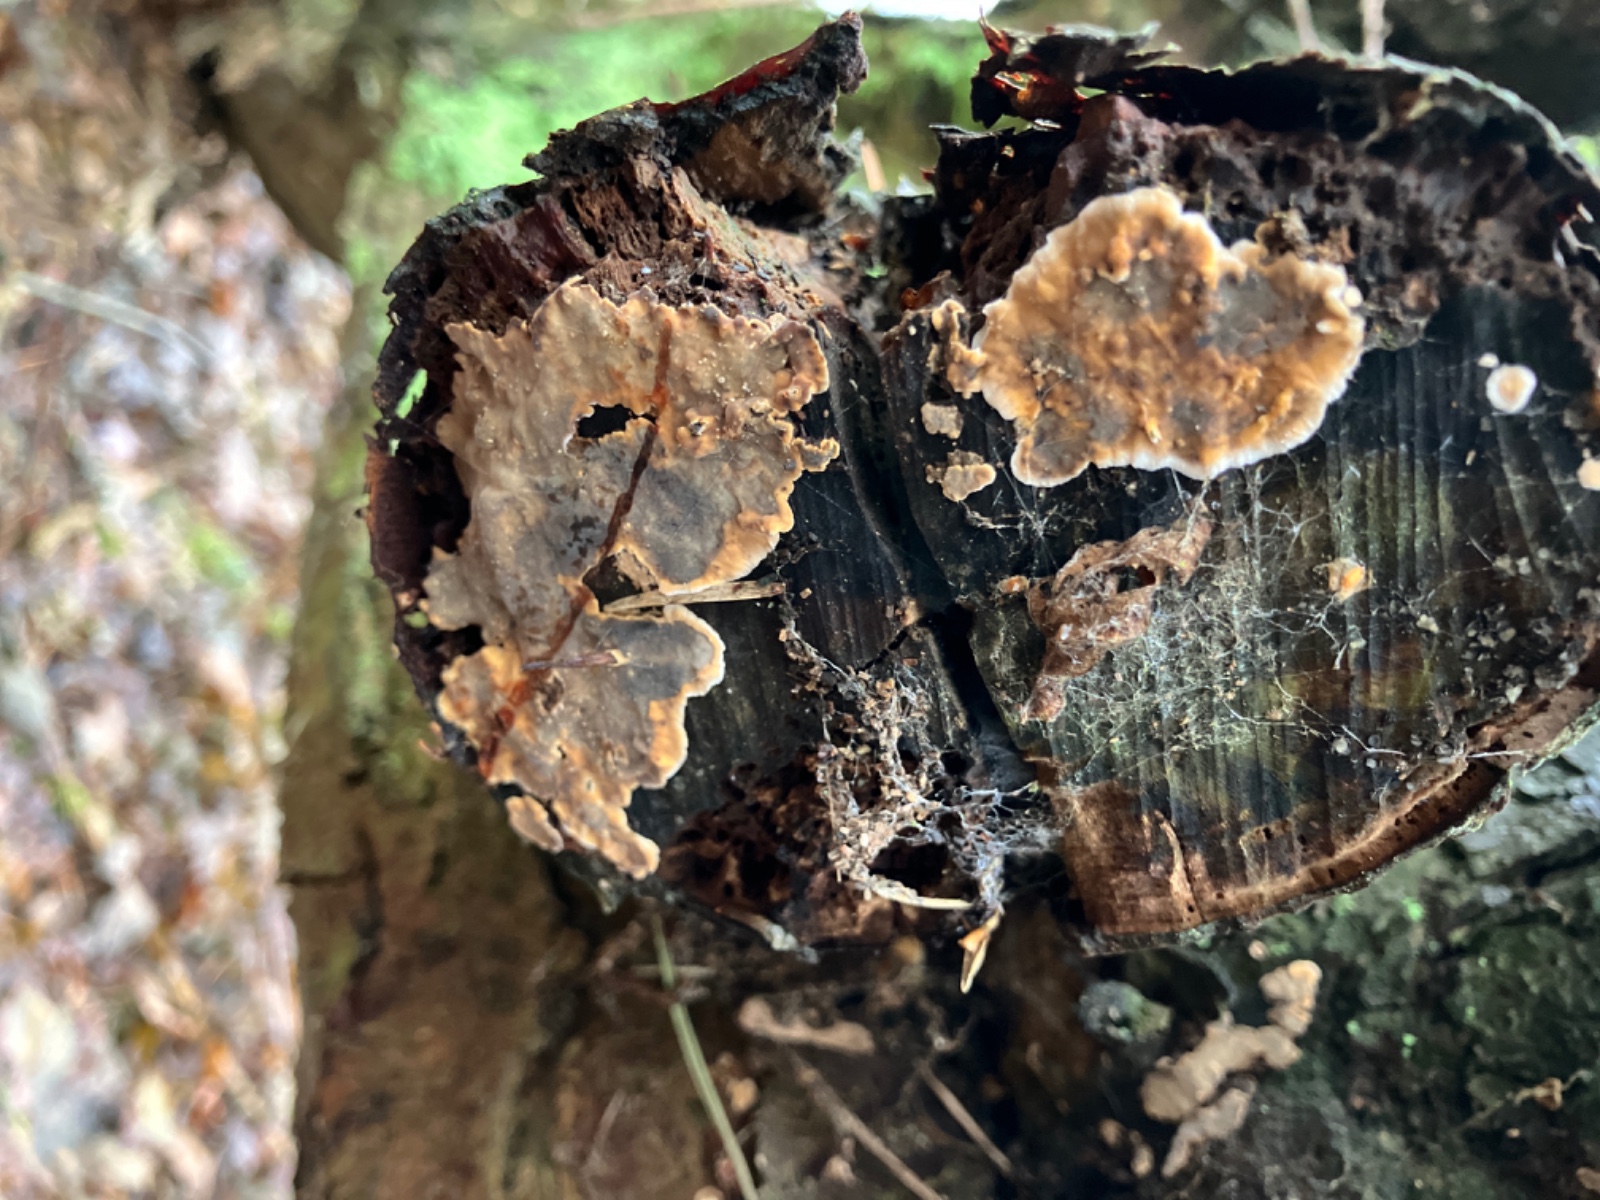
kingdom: Fungi
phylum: Basidiomycota
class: Agaricomycetes
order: Russulales
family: Stereaceae
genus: Stereum
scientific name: Stereum rugosum
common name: rynket lædersvamp
